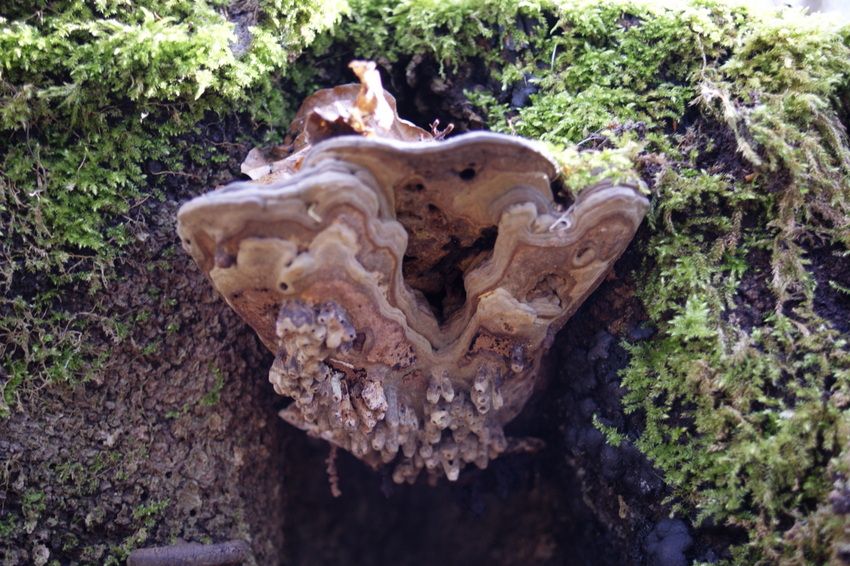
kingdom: Fungi
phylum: Basidiomycota
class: Agaricomycetes
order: Polyporales
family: Polyporaceae
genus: Ganoderma
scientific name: Ganoderma applanatum
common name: flad lakporesvamp
